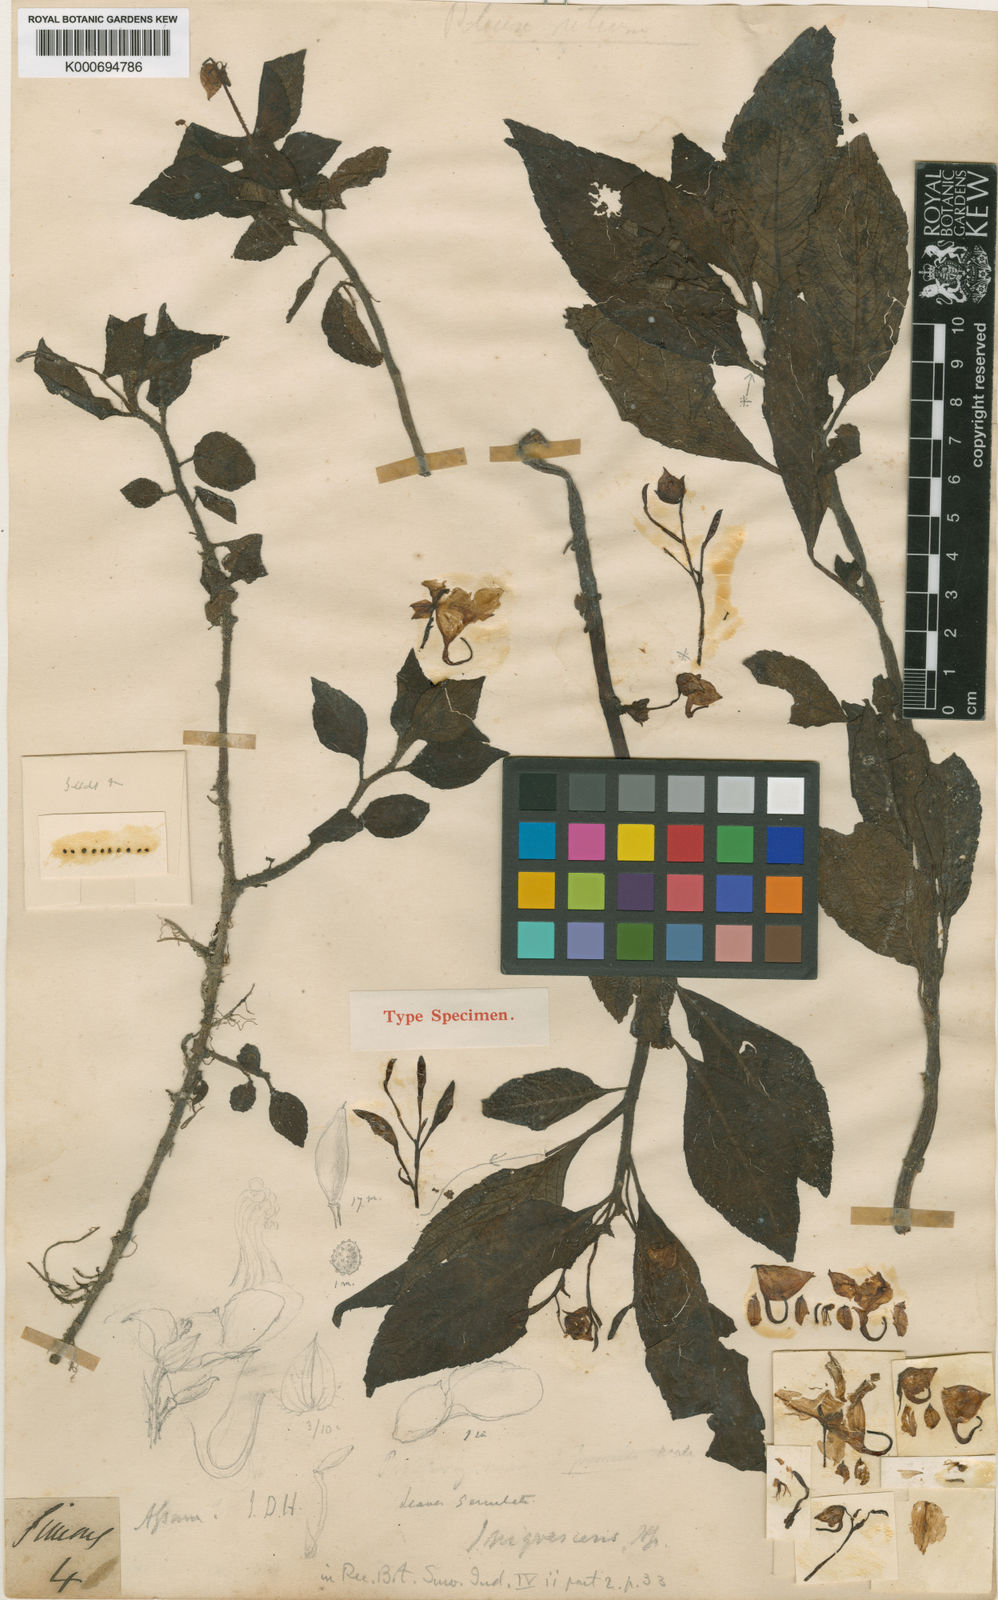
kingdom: Plantae
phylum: Tracheophyta
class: Magnoliopsida
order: Ericales
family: Balsaminaceae
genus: Impatiens
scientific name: Impatiens nigrescens
